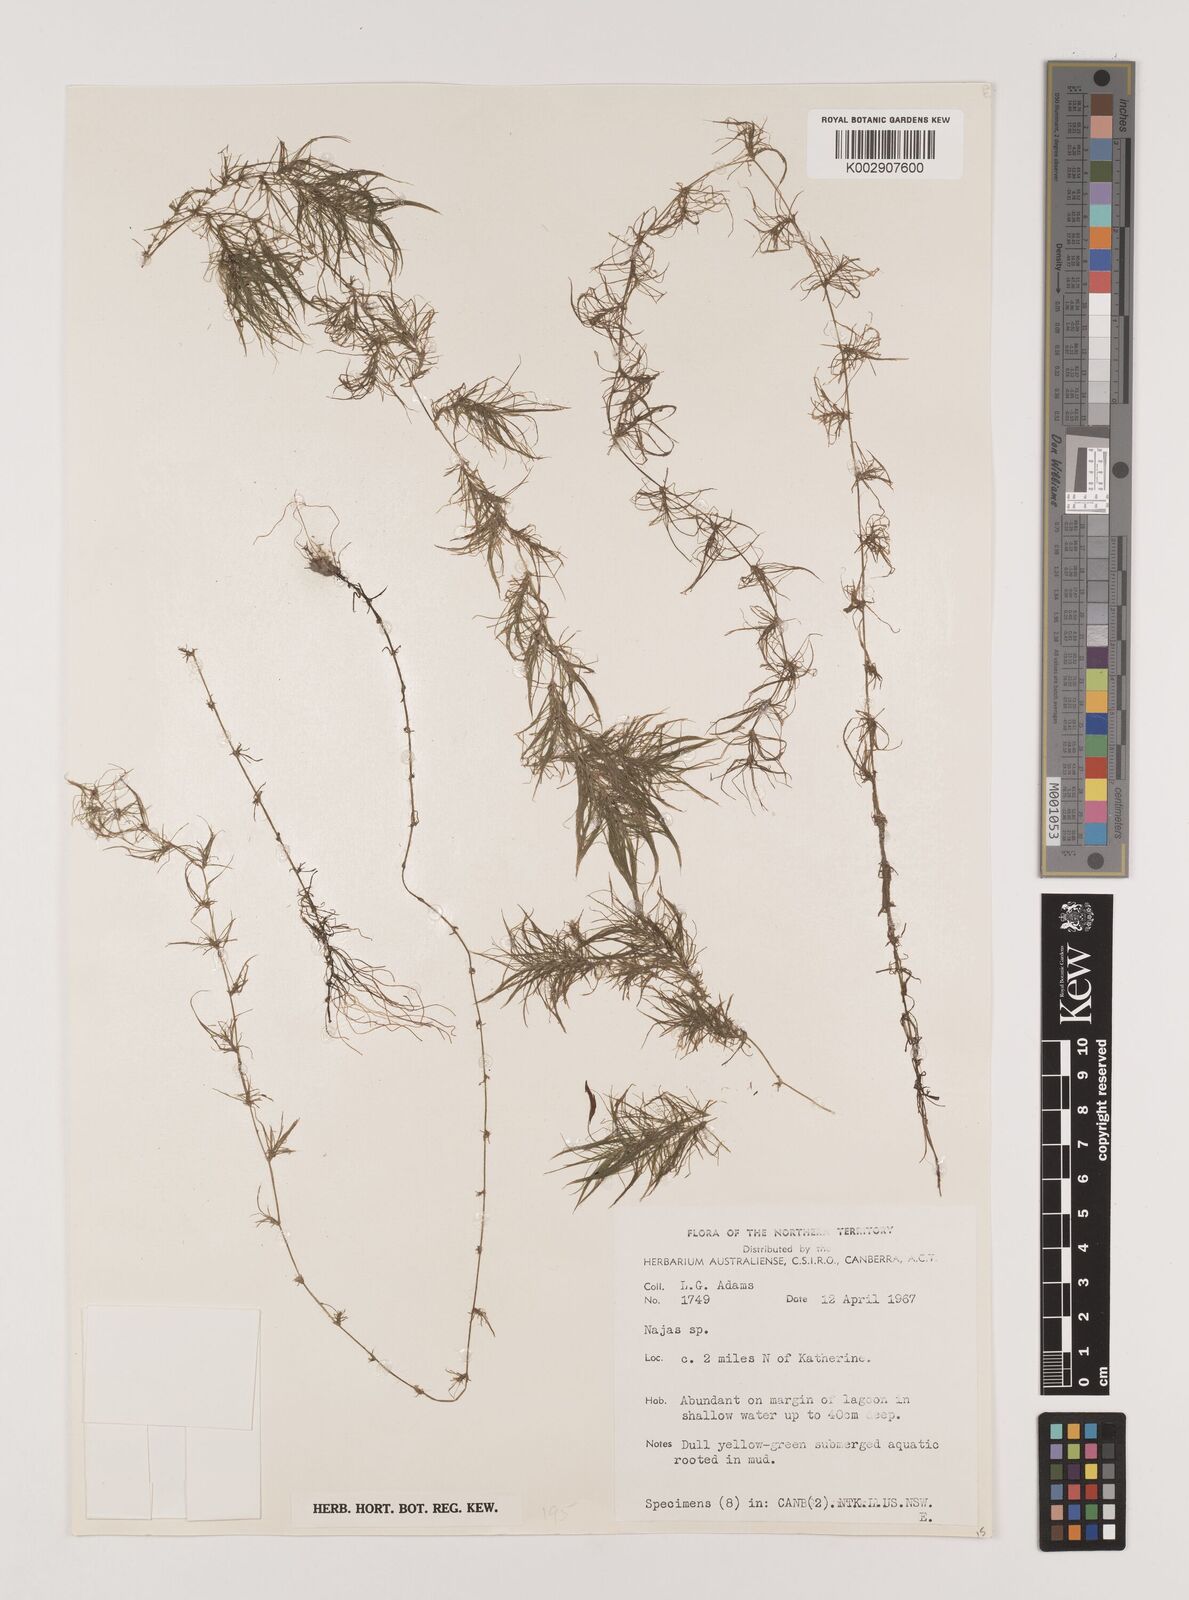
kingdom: Plantae
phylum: Tracheophyta
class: Liliopsida
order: Alismatales
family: Hydrocharitaceae
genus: Najas
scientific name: Najas
